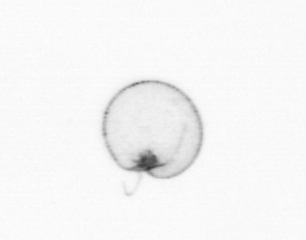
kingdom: Chromista
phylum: Myzozoa
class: Dinophyceae
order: Noctilucales
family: Noctilucaceae
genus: Noctiluca
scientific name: Noctiluca scintillans
